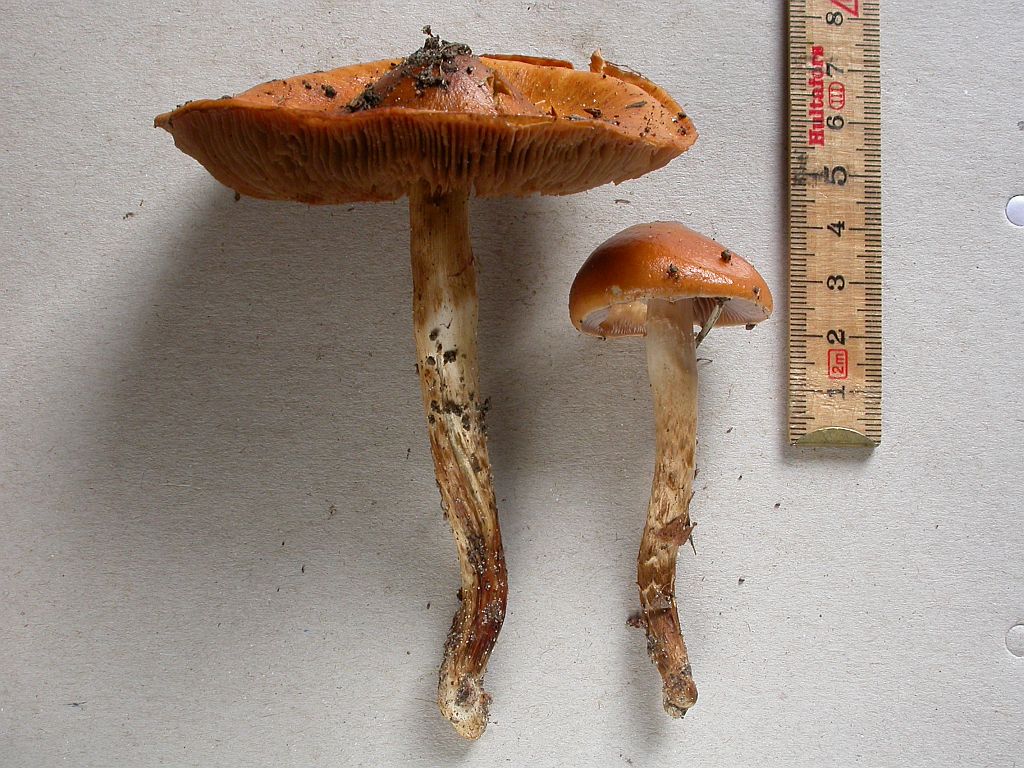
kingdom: Fungi
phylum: Basidiomycota
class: Agaricomycetes
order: Agaricales
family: Cortinariaceae
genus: Cortinarius
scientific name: Cortinarius collinitoides
